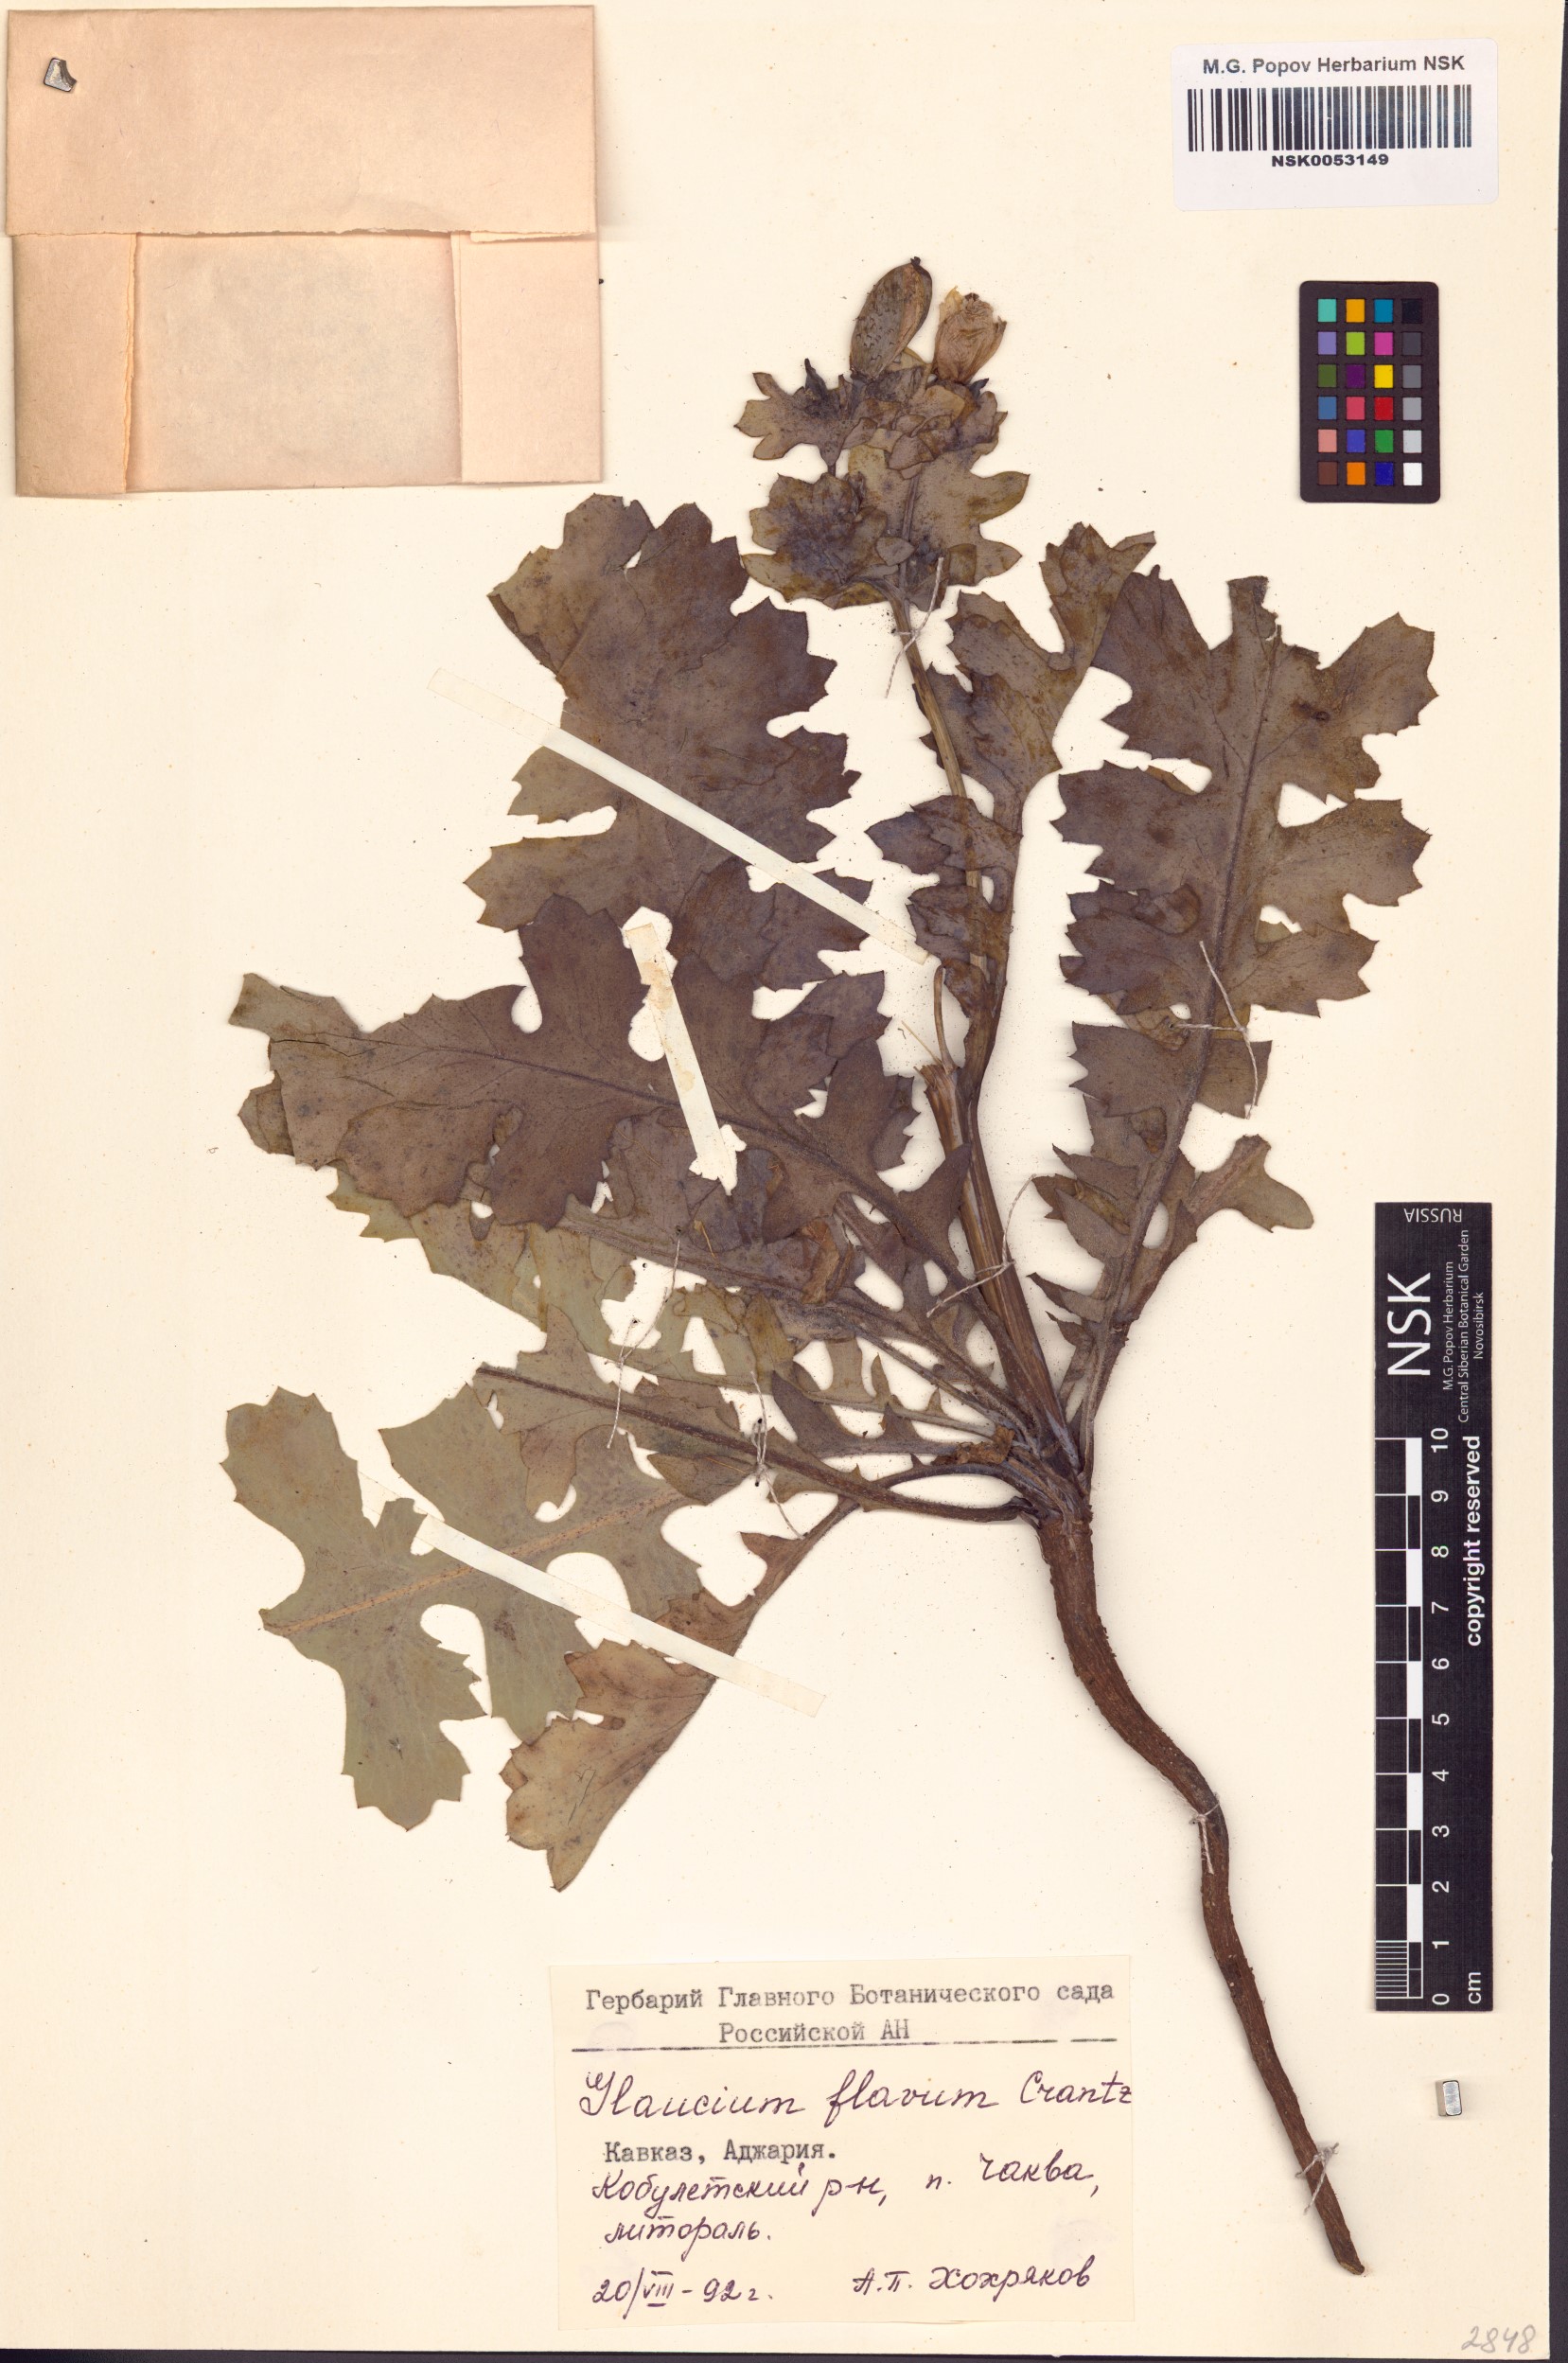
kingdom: Plantae
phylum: Tracheophyta
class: Magnoliopsida
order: Ranunculales
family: Papaveraceae
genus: Glaucium
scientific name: Glaucium flavum
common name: Yellow horned-poppy
